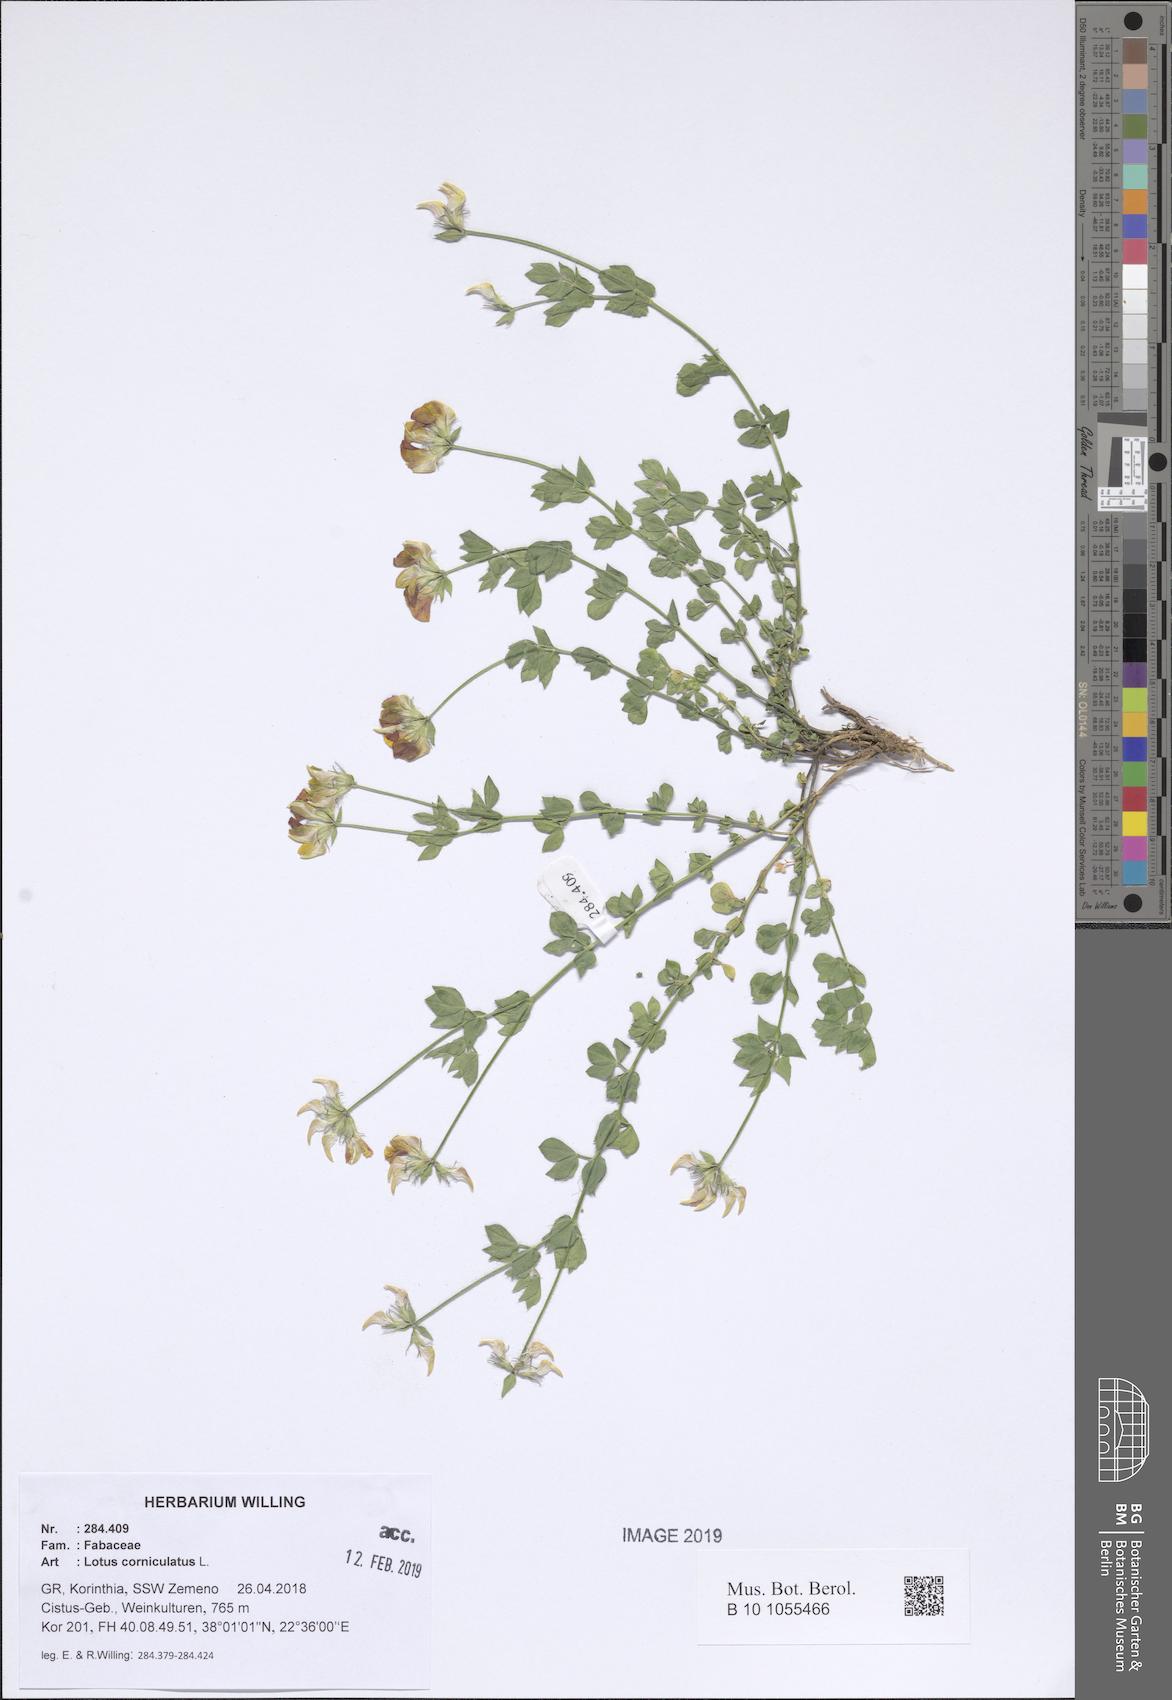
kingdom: Plantae
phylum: Tracheophyta
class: Magnoliopsida
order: Fabales
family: Fabaceae
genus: Lotus
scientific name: Lotus corniculatus
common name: Common bird's-foot-trefoil
